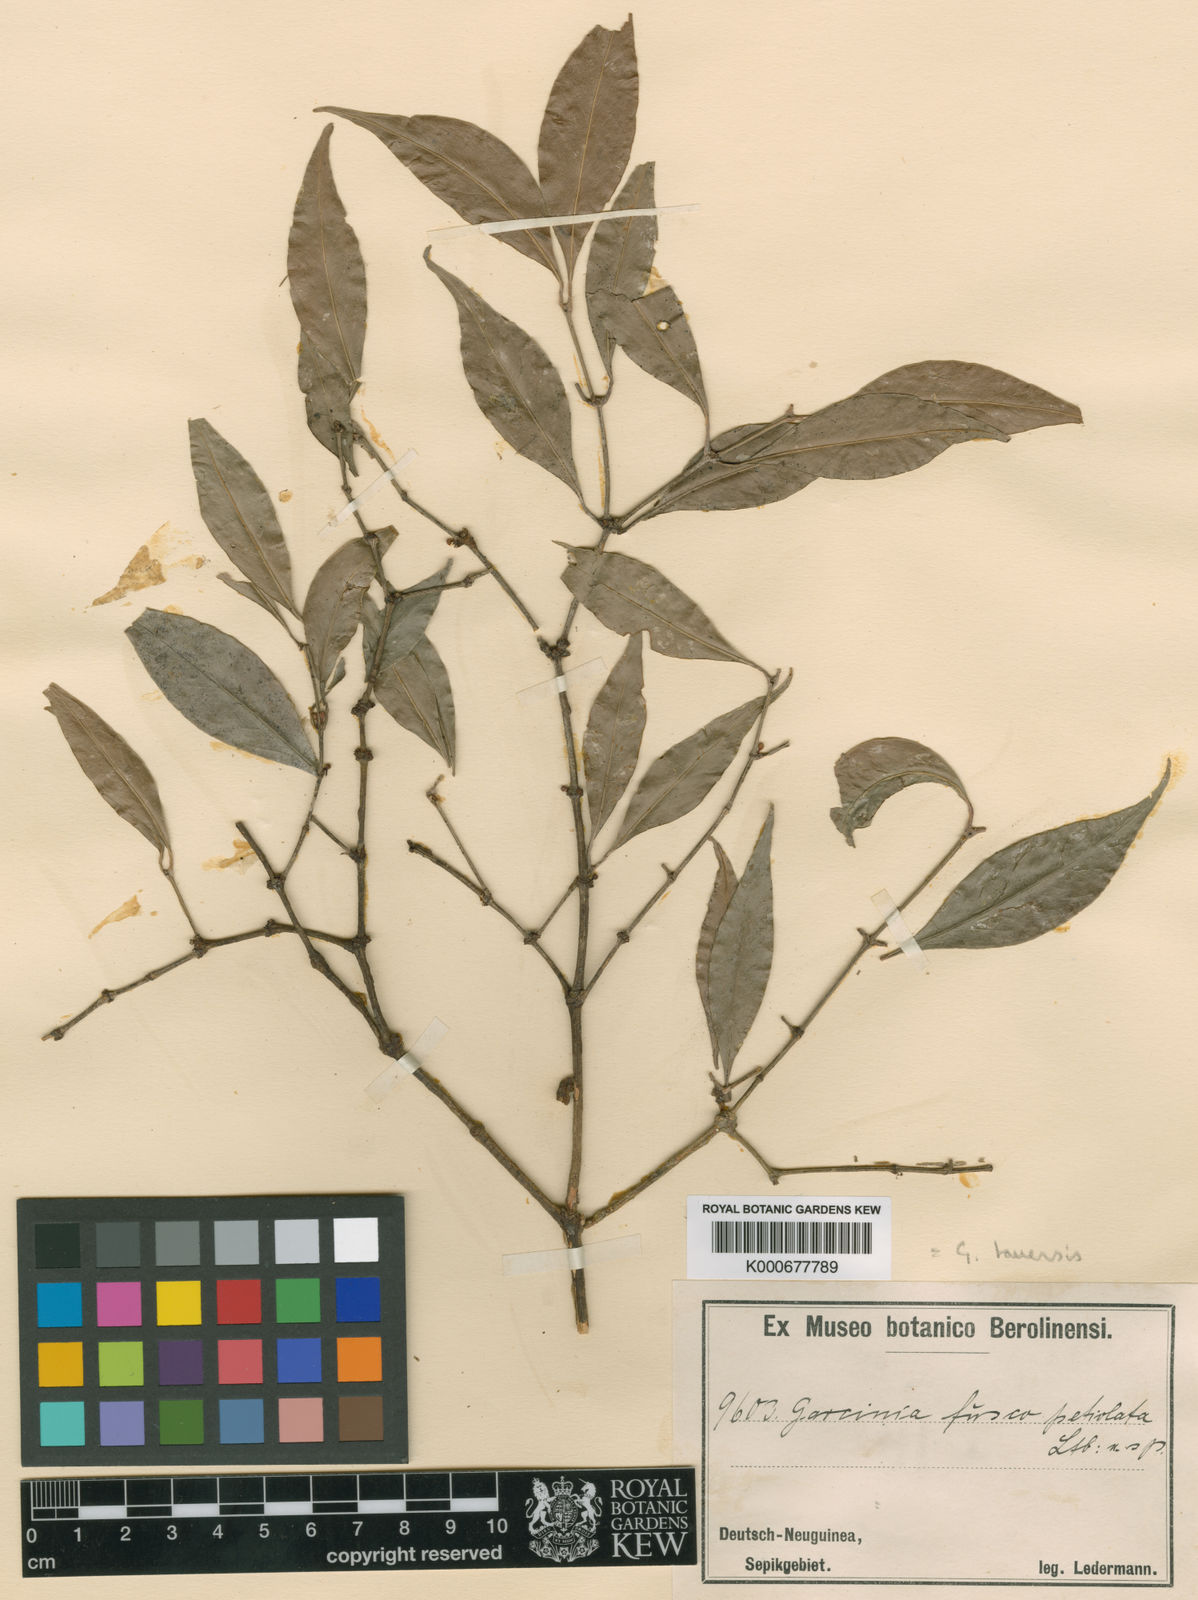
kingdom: Plantae
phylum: Tracheophyta
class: Magnoliopsida
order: Malpighiales
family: Clusiaceae
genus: Garcinia
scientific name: Garcinia tauensis
